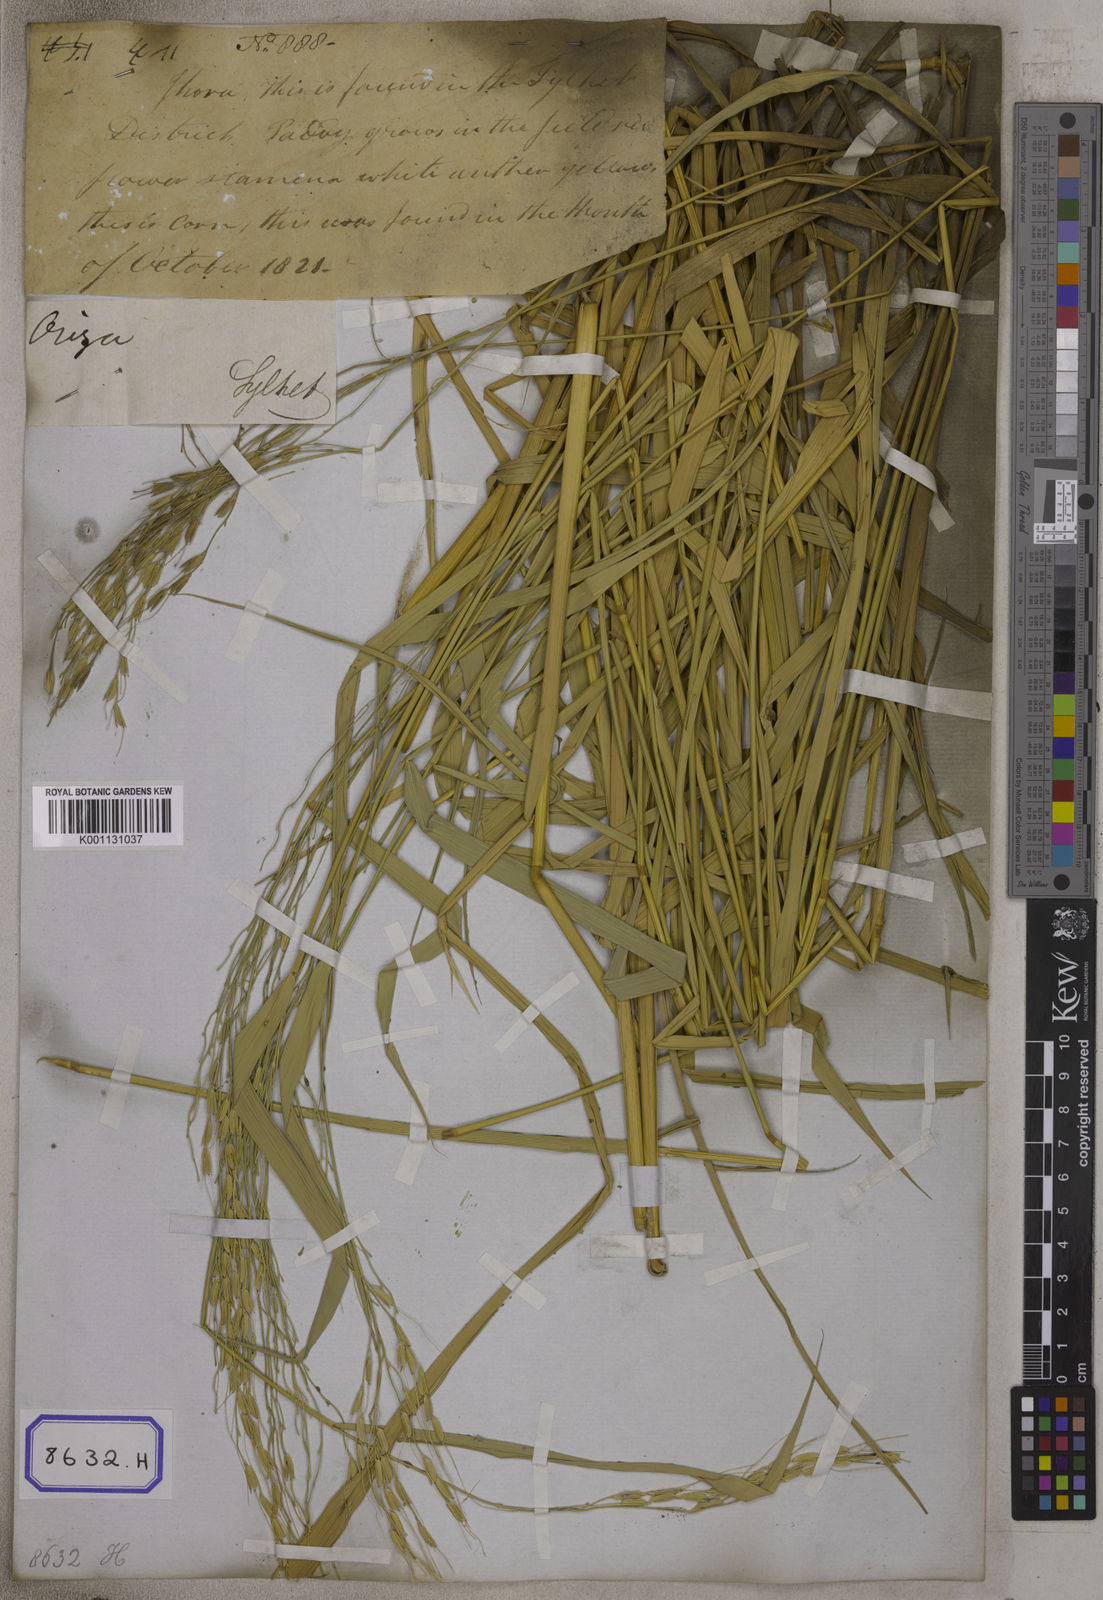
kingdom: Plantae
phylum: Tracheophyta
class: Liliopsida
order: Poales
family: Poaceae
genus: Oryza
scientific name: Oryza sativa
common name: Rice
